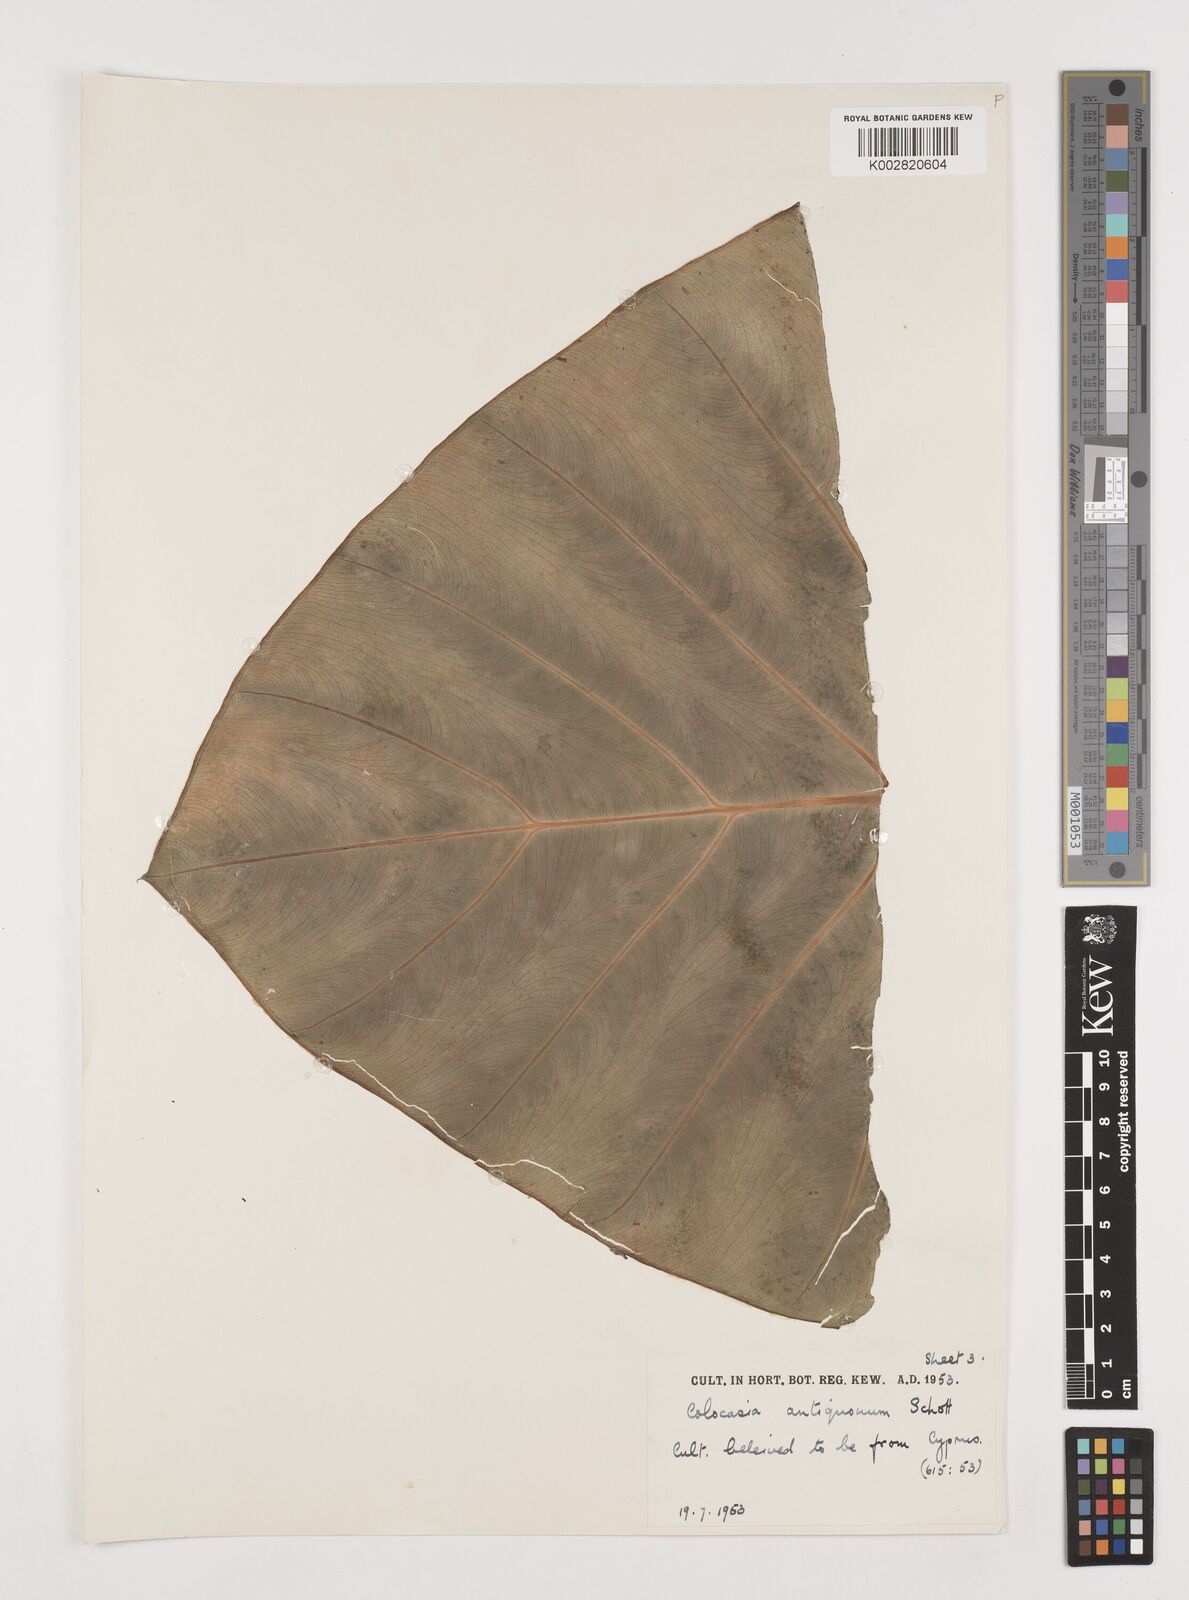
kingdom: Plantae
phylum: Tracheophyta
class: Liliopsida
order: Alismatales
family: Araceae
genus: Colocasia
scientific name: Colocasia esculenta
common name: Taro
